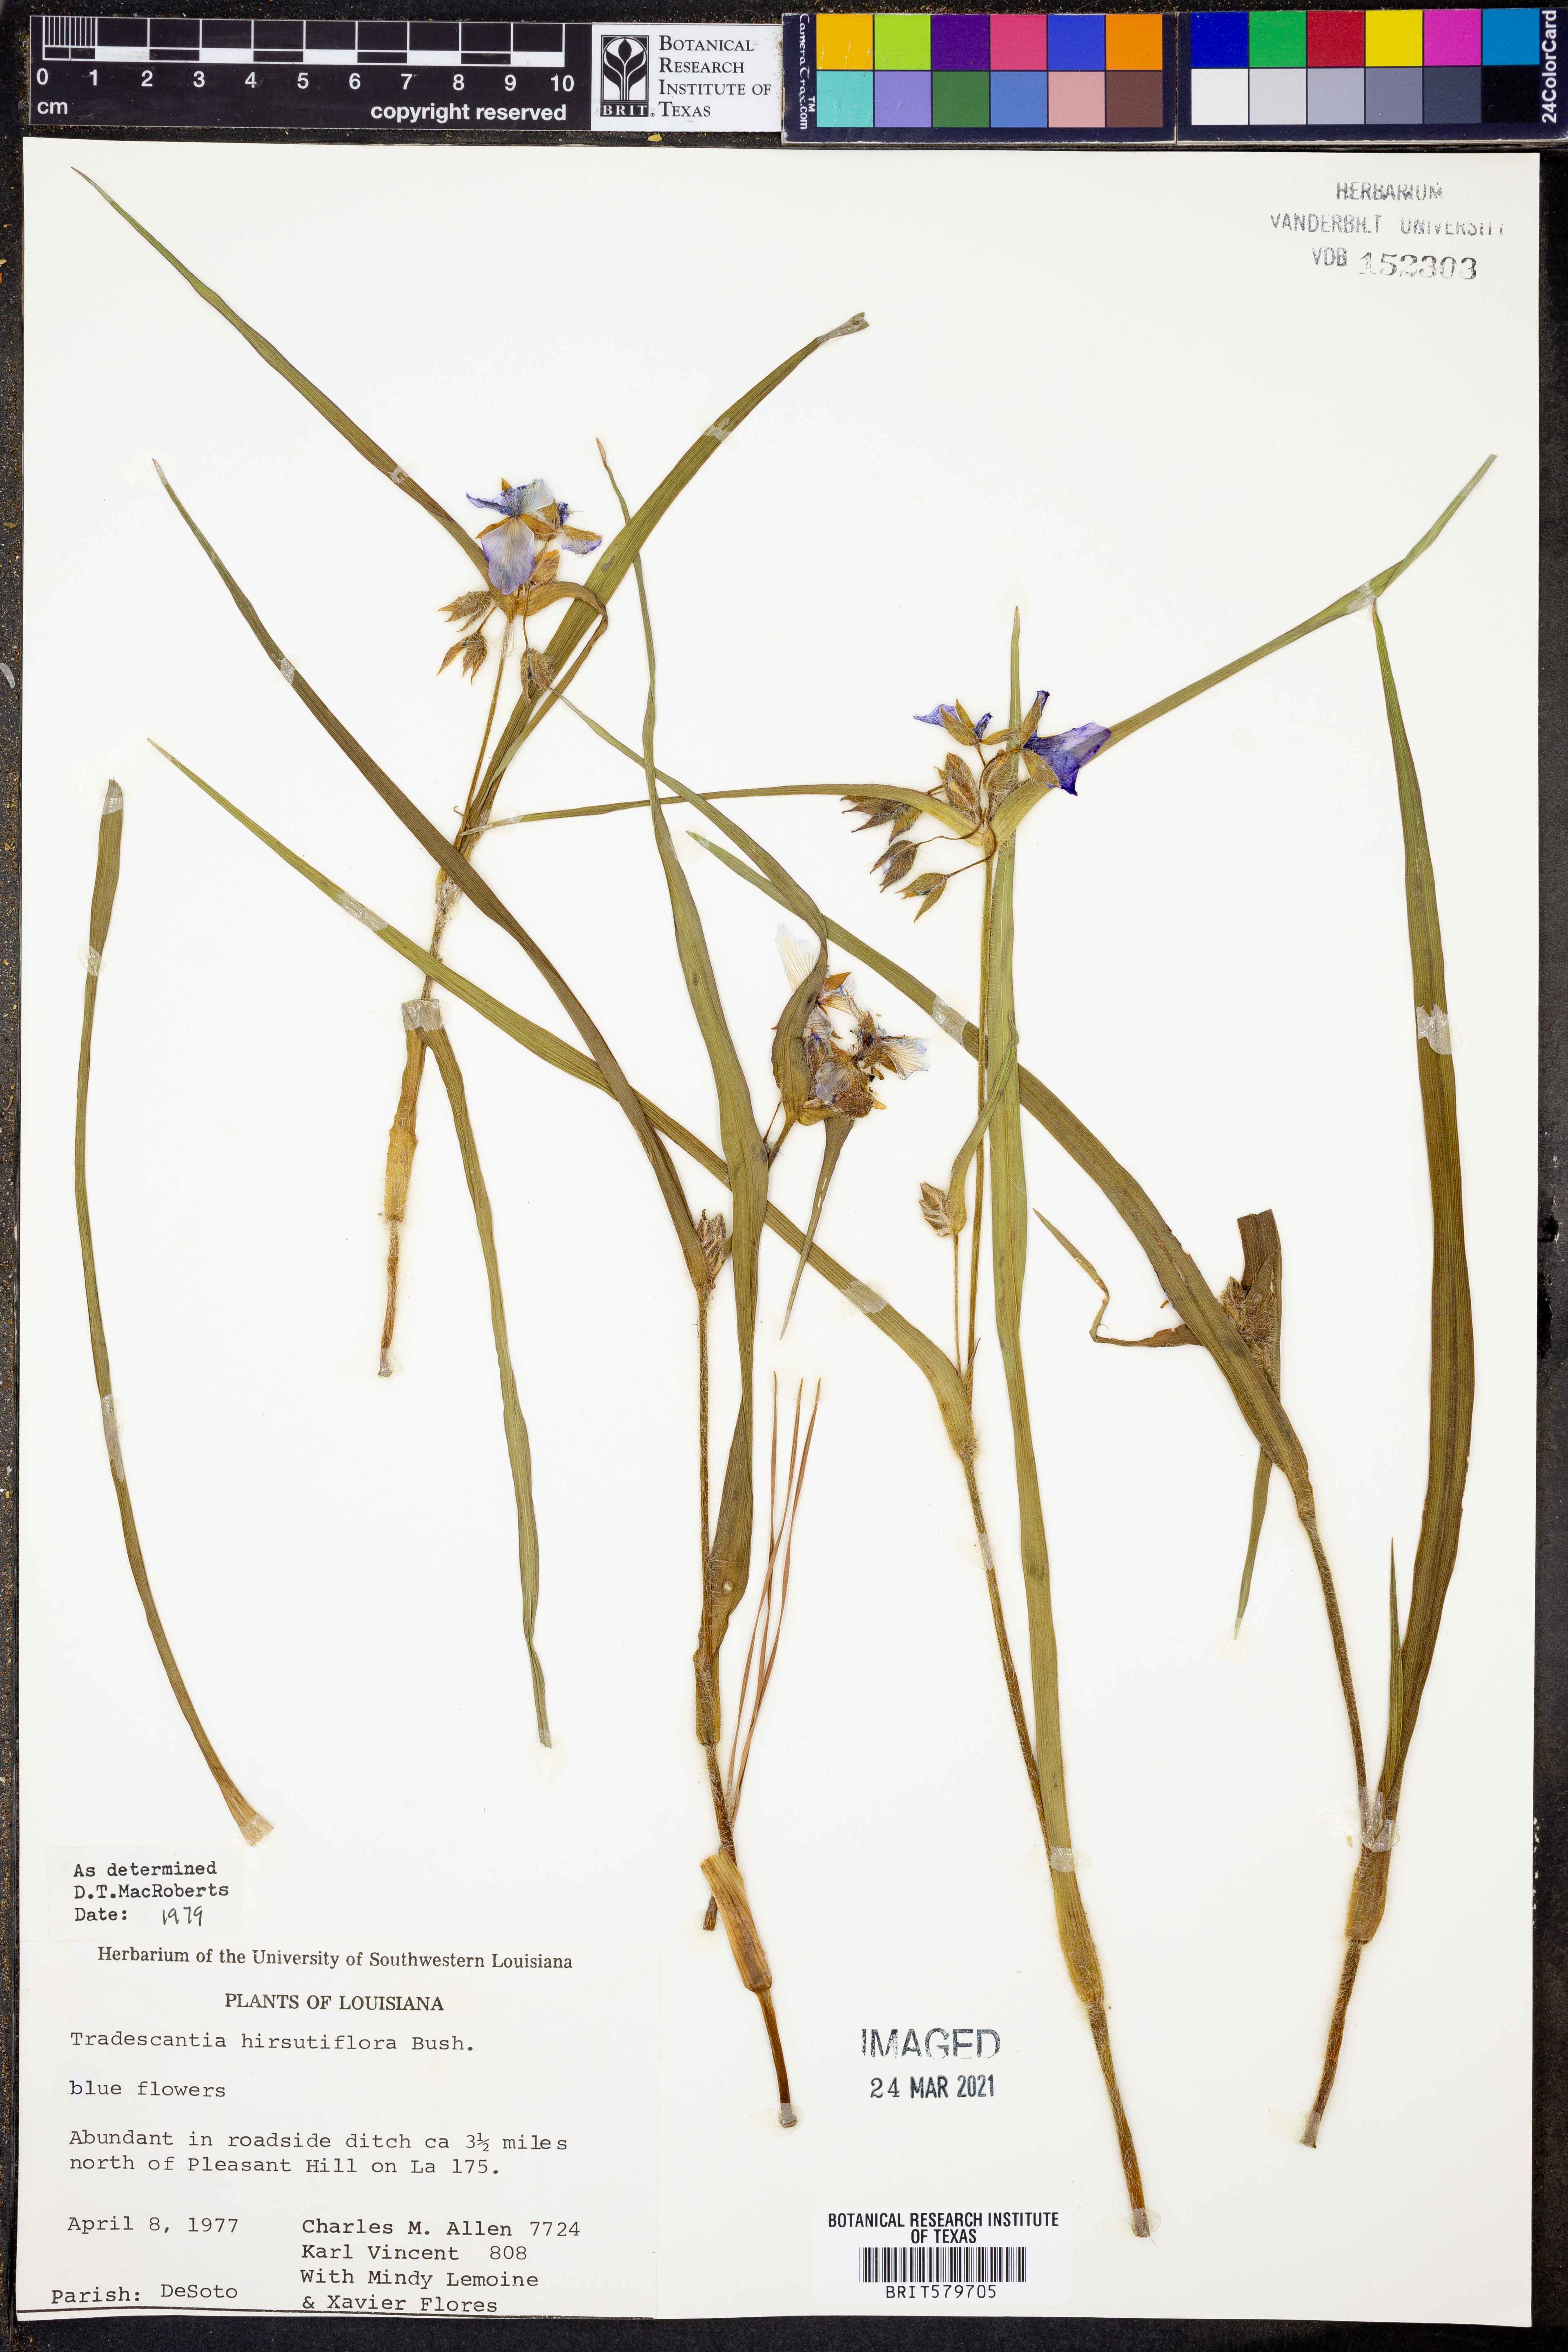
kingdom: Plantae
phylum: Tracheophyta
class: Liliopsida
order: Commelinales
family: Commelinaceae
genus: Tradescantia
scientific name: Tradescantia hirsutiflora
